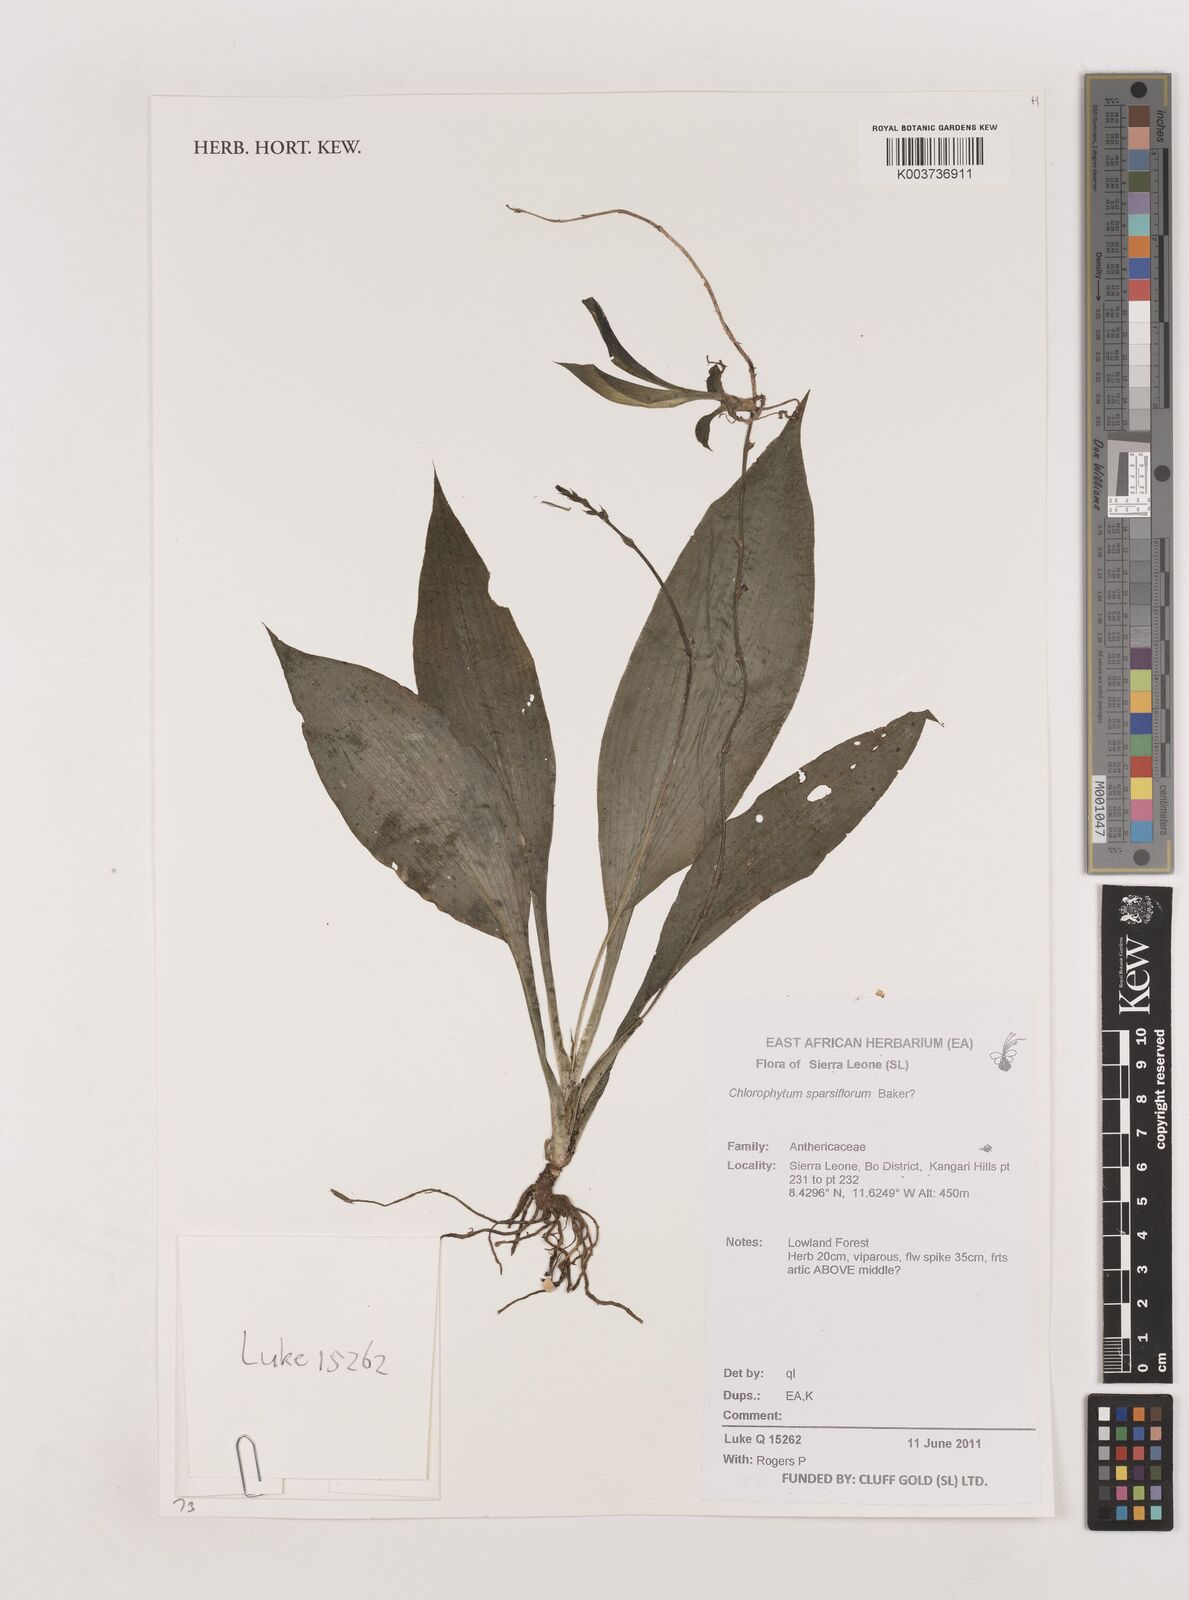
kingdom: Plantae
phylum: Tracheophyta
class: Liliopsida
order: Asparagales
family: Asparagaceae
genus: Chlorophytum
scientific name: Chlorophytum sparsiflorum
